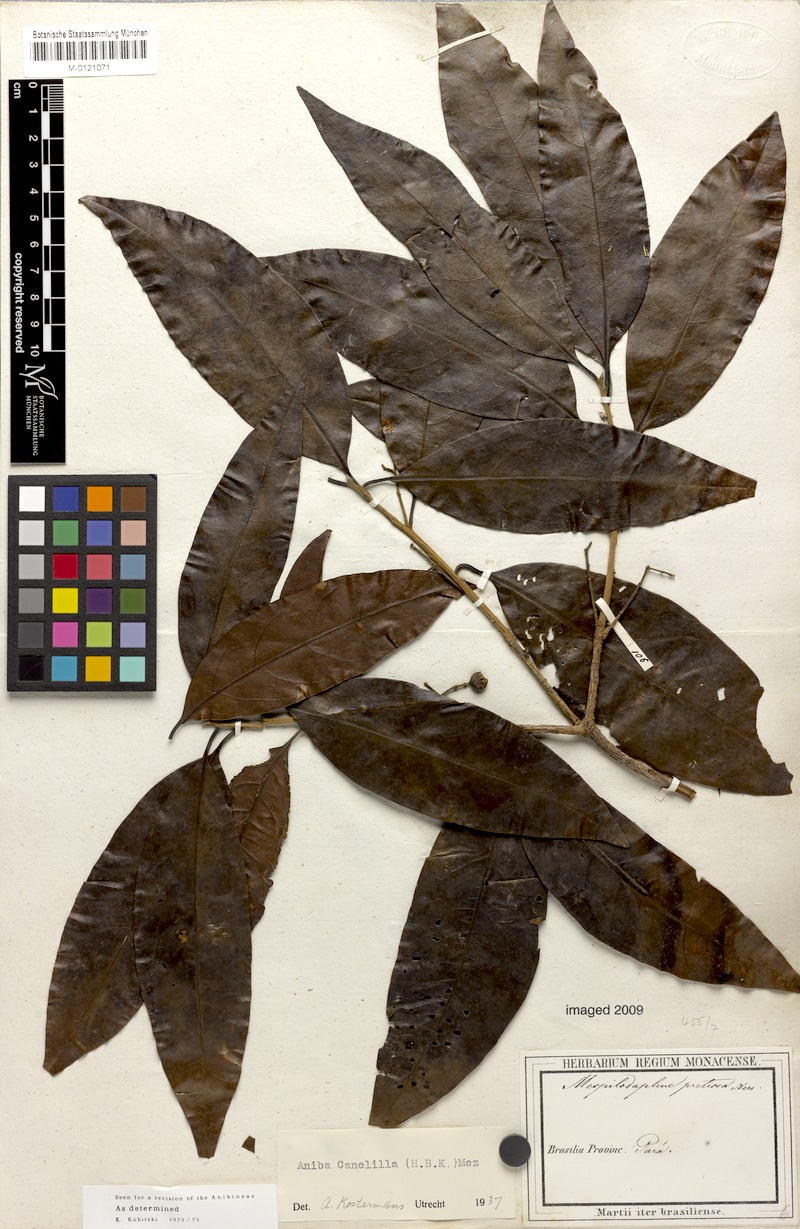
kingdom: Plantae
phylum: Tracheophyta
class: Magnoliopsida
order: Laurales
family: Lauraceae
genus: Aniba
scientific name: Aniba canelilla
